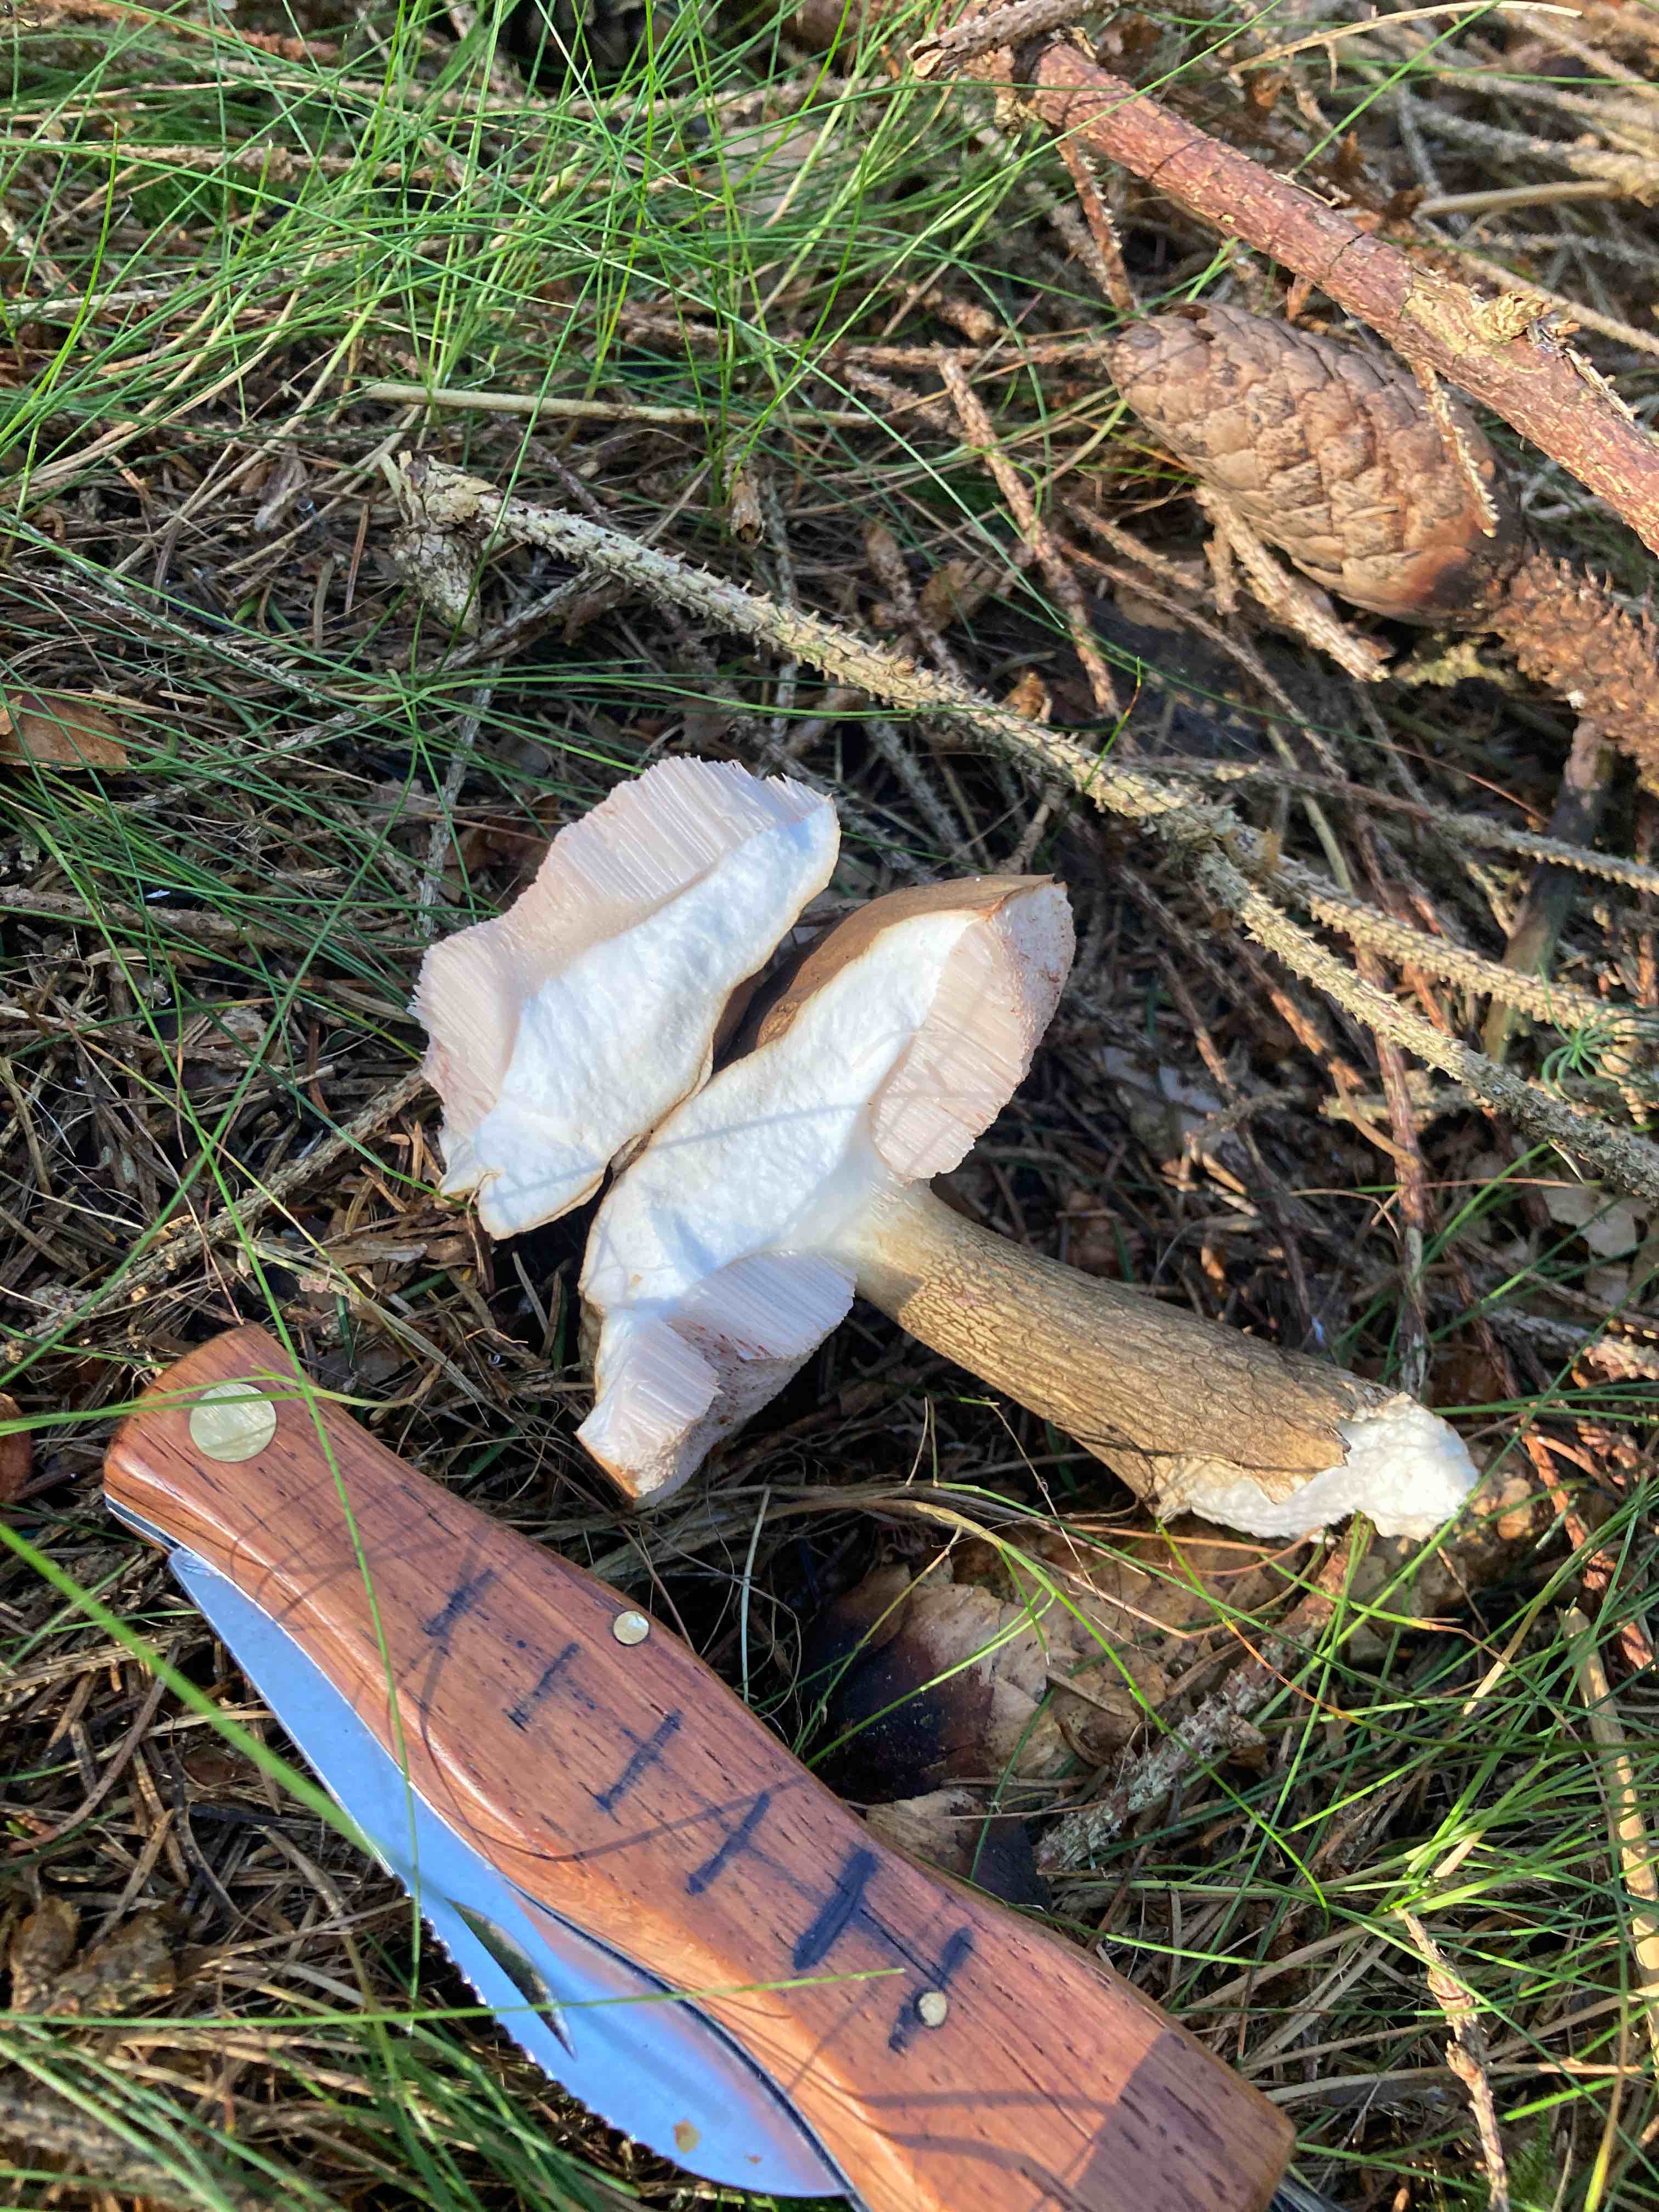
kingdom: Fungi
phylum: Basidiomycota
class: Agaricomycetes
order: Boletales
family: Boletaceae
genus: Tylopilus
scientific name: Tylopilus felleus
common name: galderørhat
